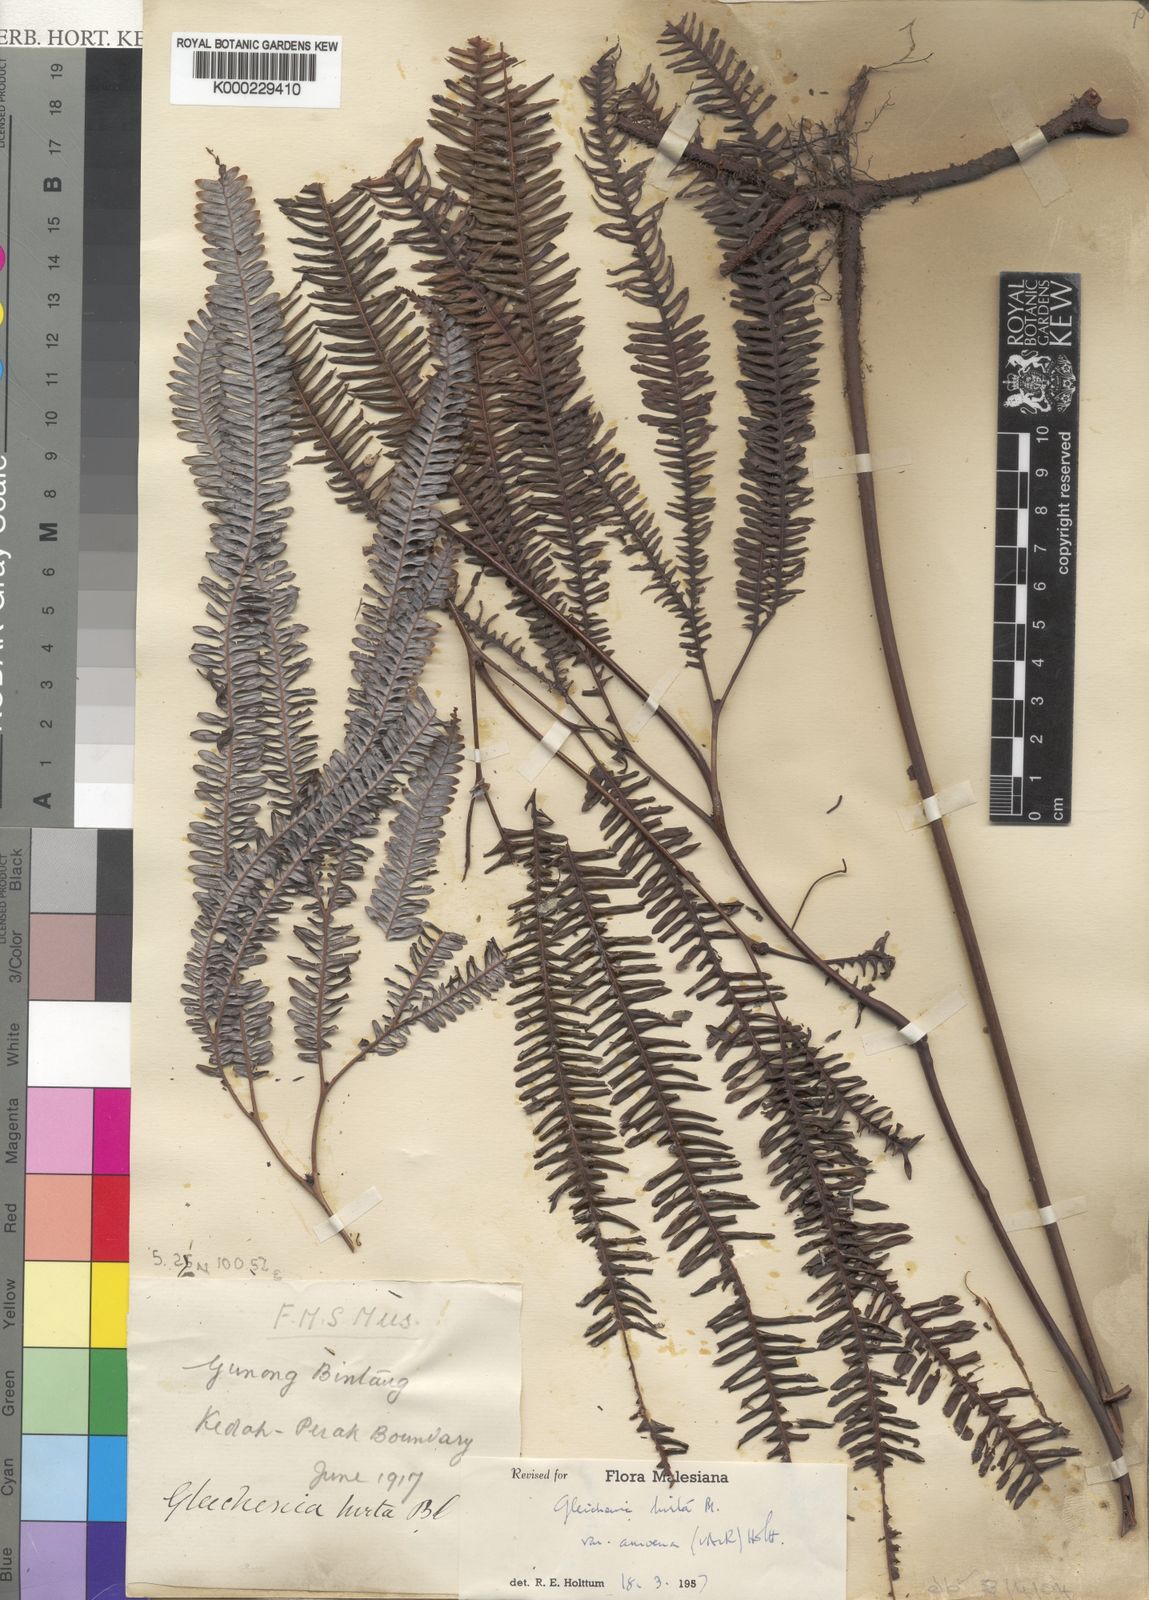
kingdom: Plantae
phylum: Tracheophyta
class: Polypodiopsida
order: Gleicheniales
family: Gleicheniaceae
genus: Sticherus
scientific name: Sticherus hirtus
